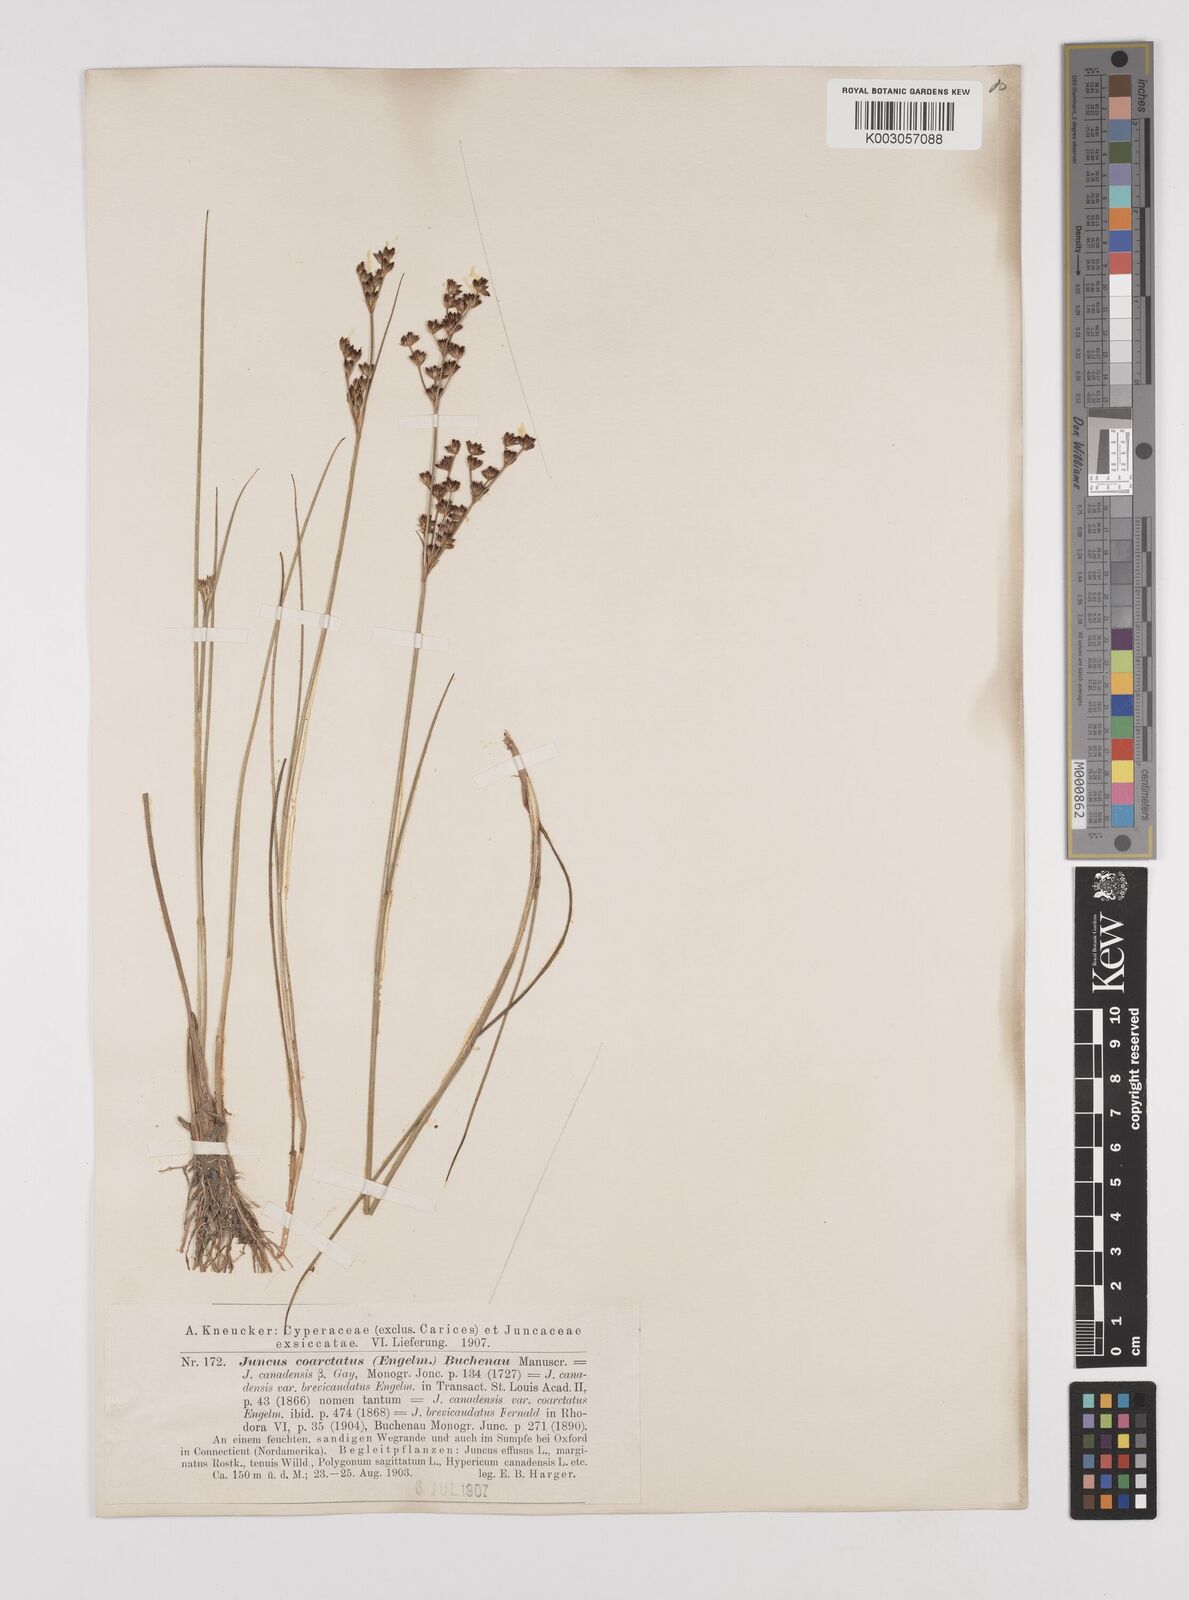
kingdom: Plantae
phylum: Tracheophyta
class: Liliopsida
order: Poales
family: Juncaceae
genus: Juncus
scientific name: Juncus canadensis
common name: Canada rush
